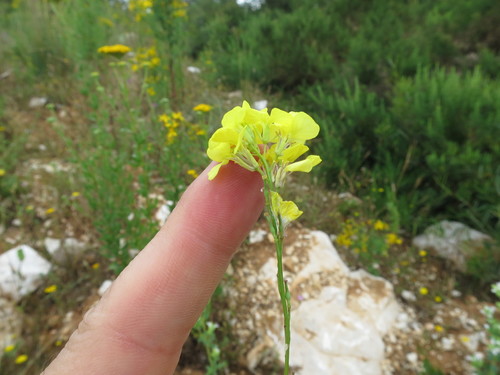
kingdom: Plantae
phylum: Tracheophyta
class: Magnoliopsida
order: Brassicales
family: Brassicaceae
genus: Rapistrum
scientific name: Rapistrum rugosum
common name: Annual bastardcabbage
